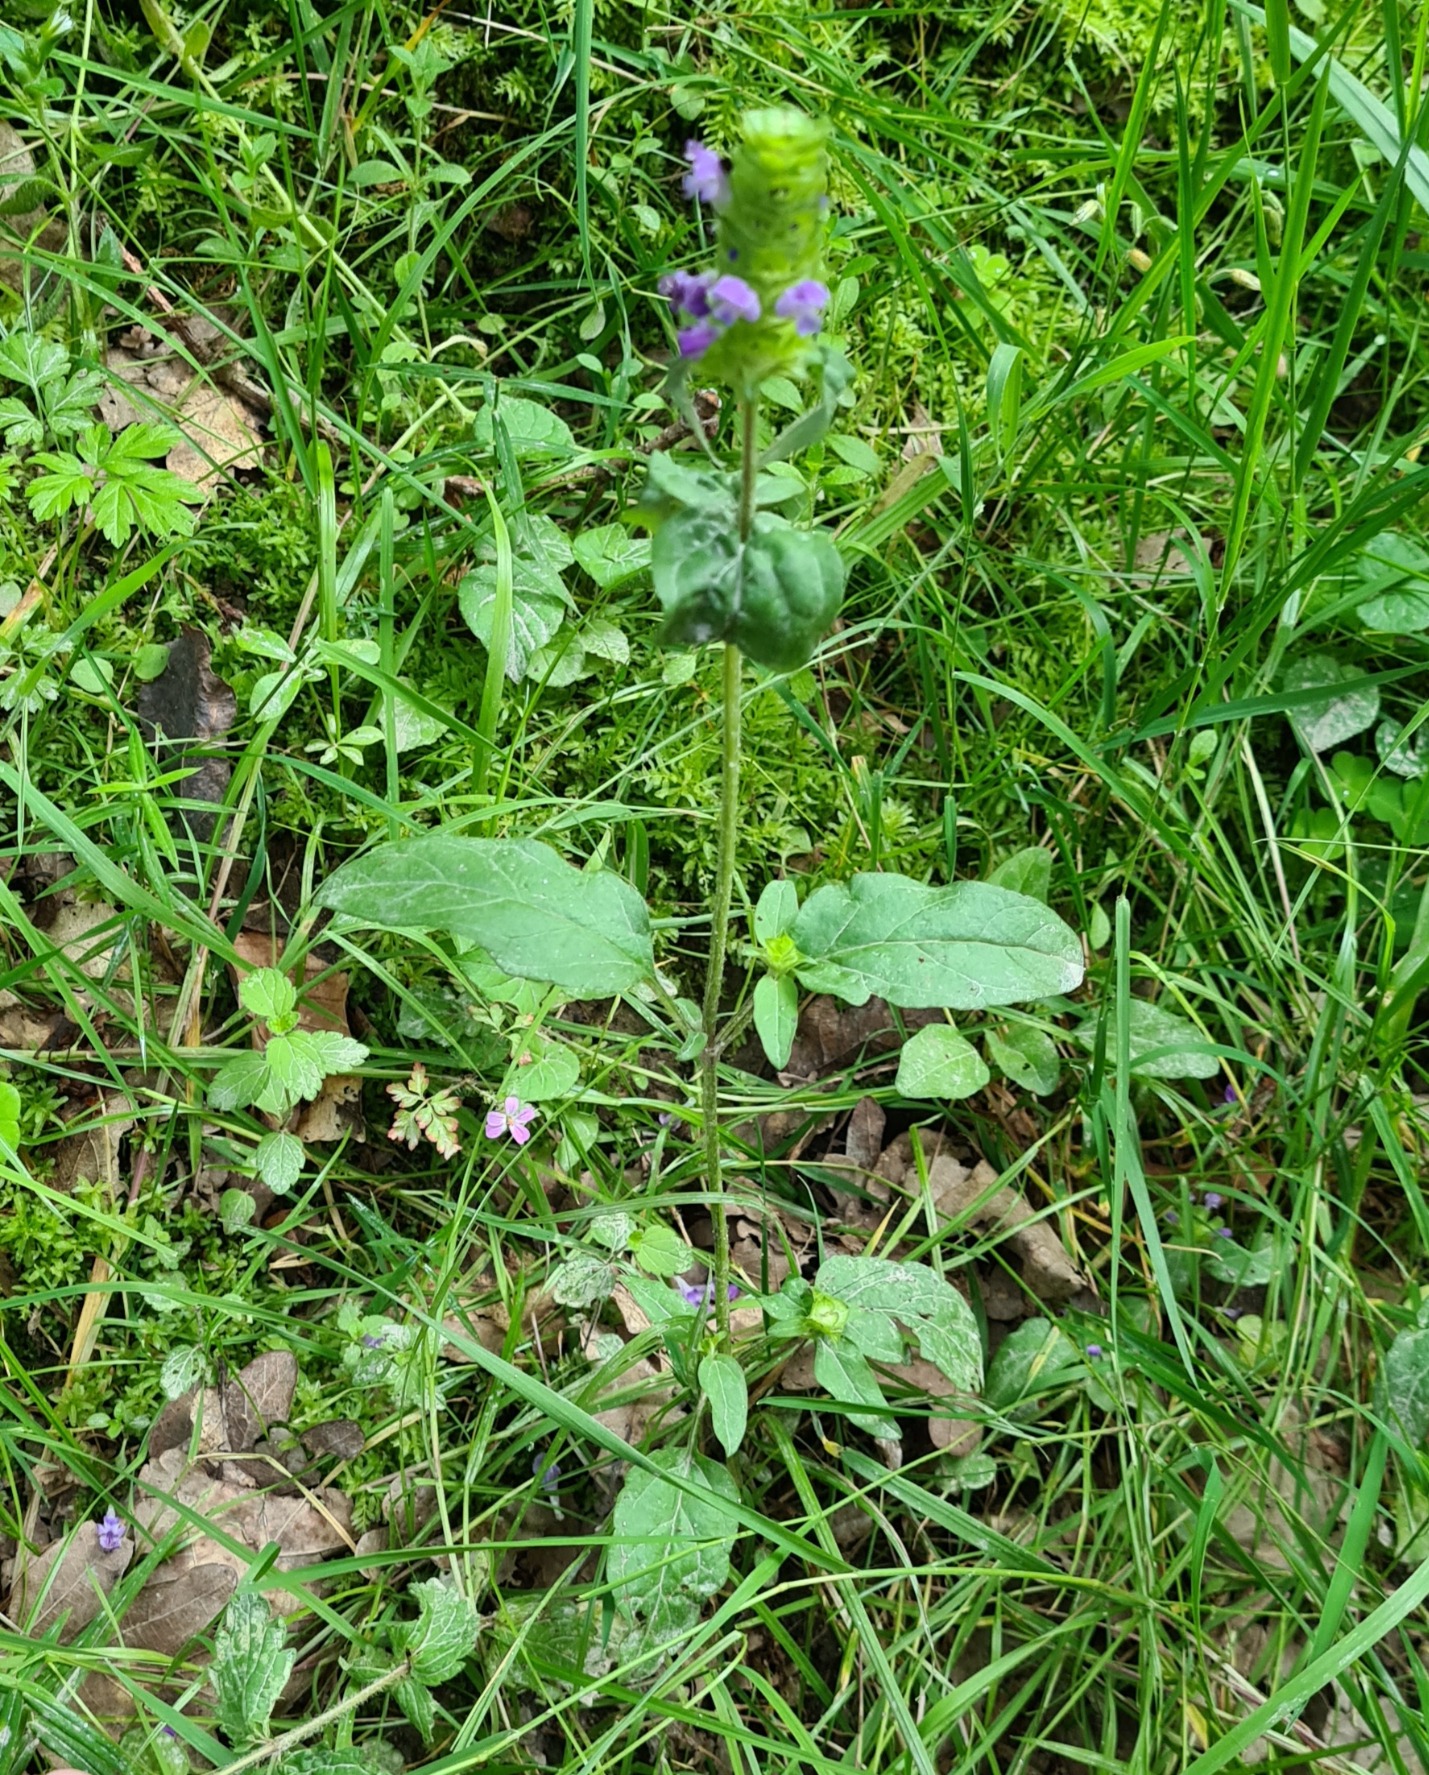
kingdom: Plantae
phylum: Tracheophyta
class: Magnoliopsida
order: Lamiales
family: Lamiaceae
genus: Prunella
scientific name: Prunella vulgaris
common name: Almindelig brunelle
